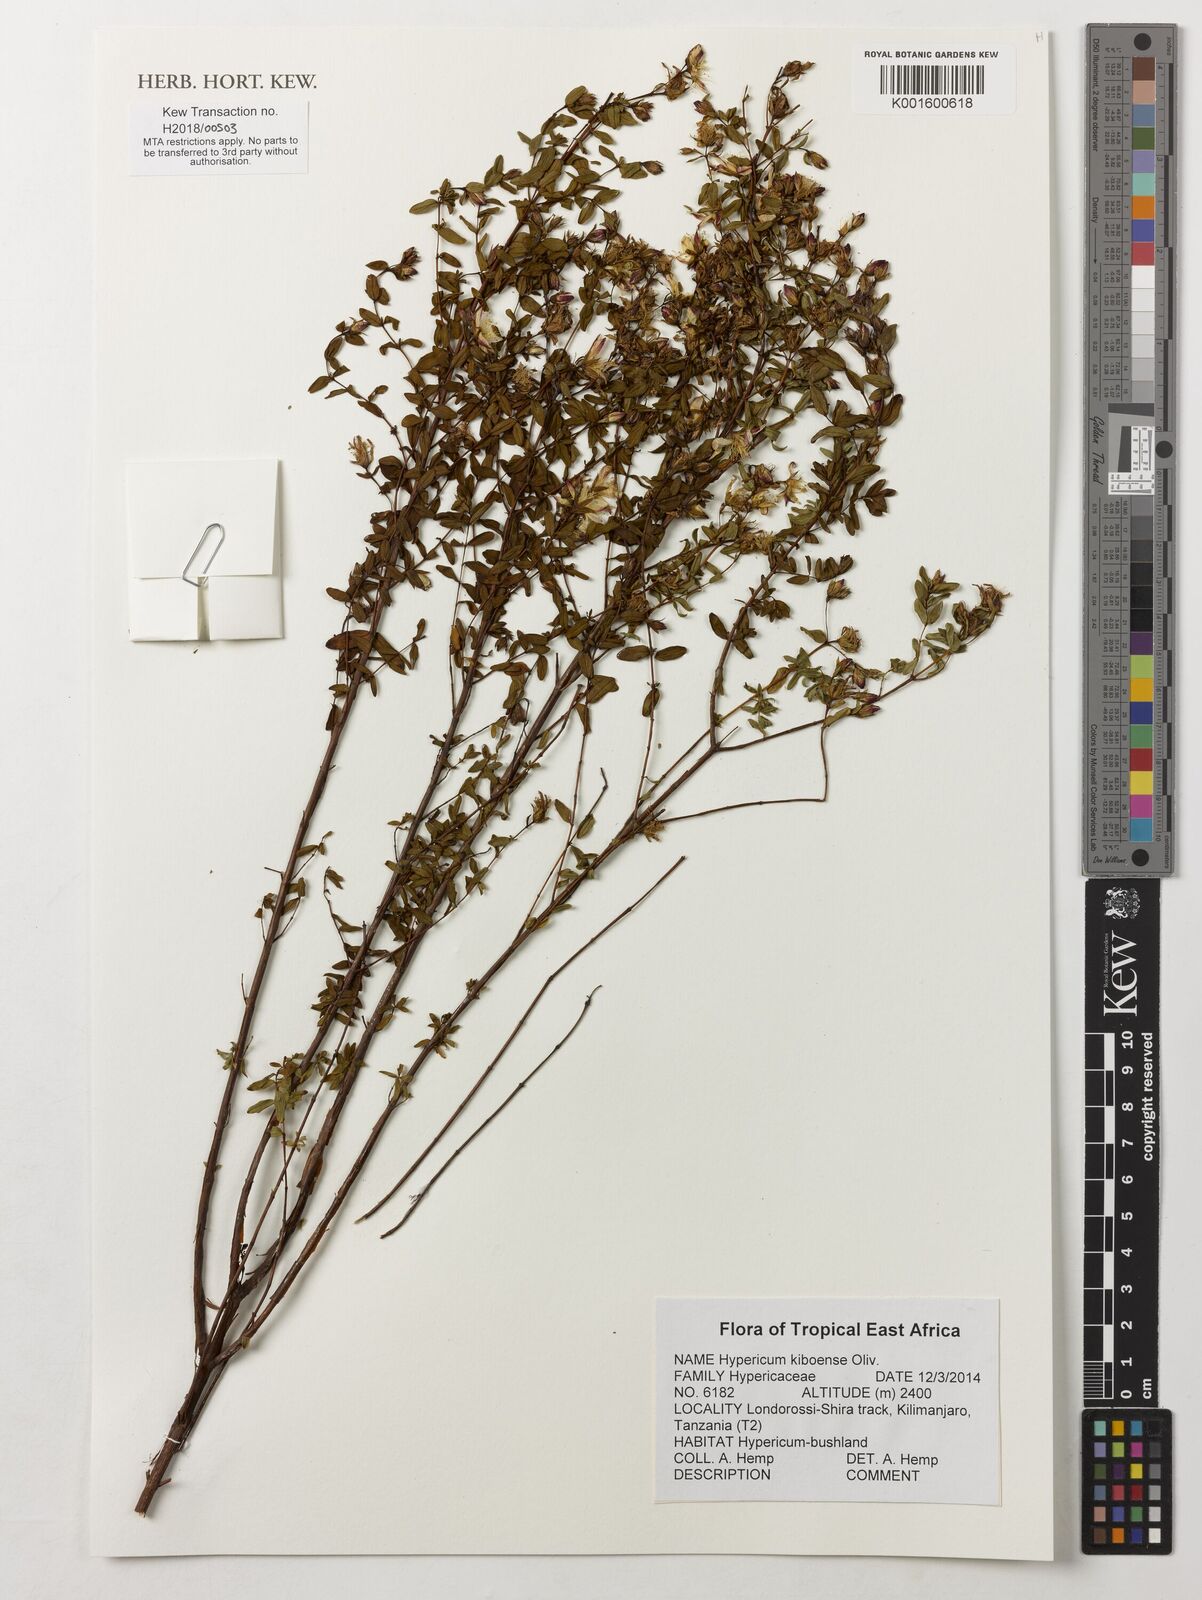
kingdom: Plantae
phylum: Tracheophyta
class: Magnoliopsida
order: Malpighiales
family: Hypericaceae
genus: Hypericum
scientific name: Hypericum kiboense
